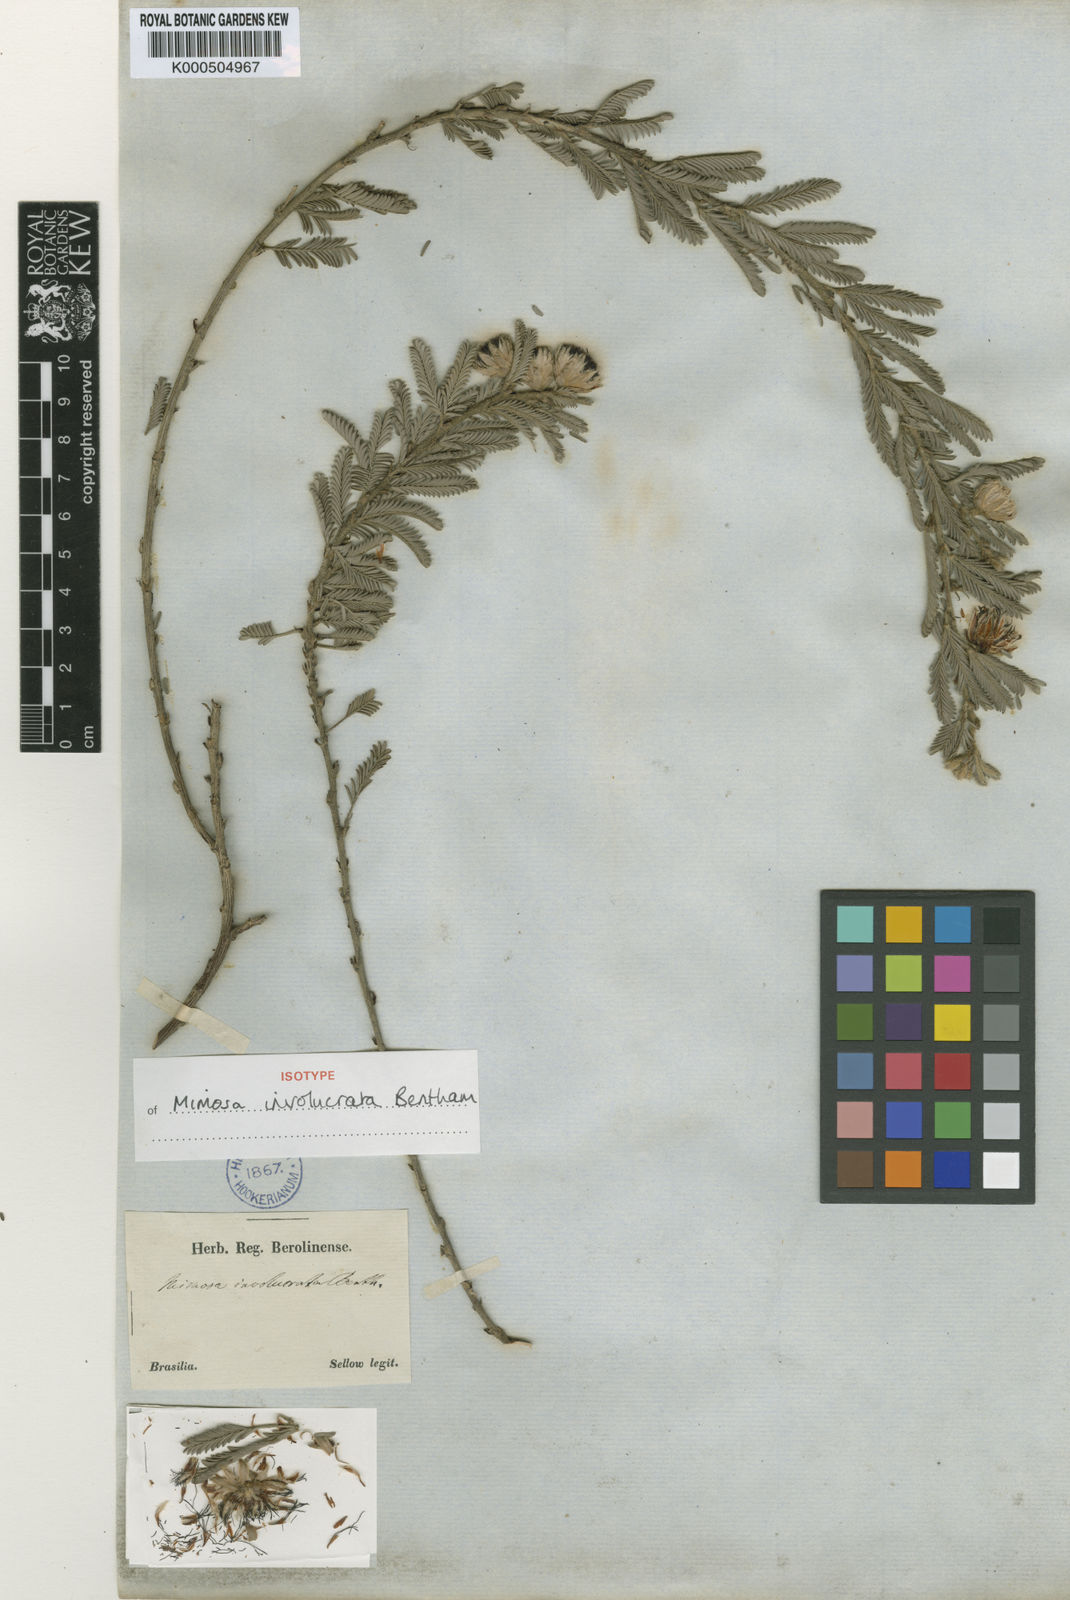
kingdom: Plantae
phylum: Tracheophyta
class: Magnoliopsida
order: Fabales
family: Fabaceae
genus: Mimosa
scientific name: Mimosa involucrata
